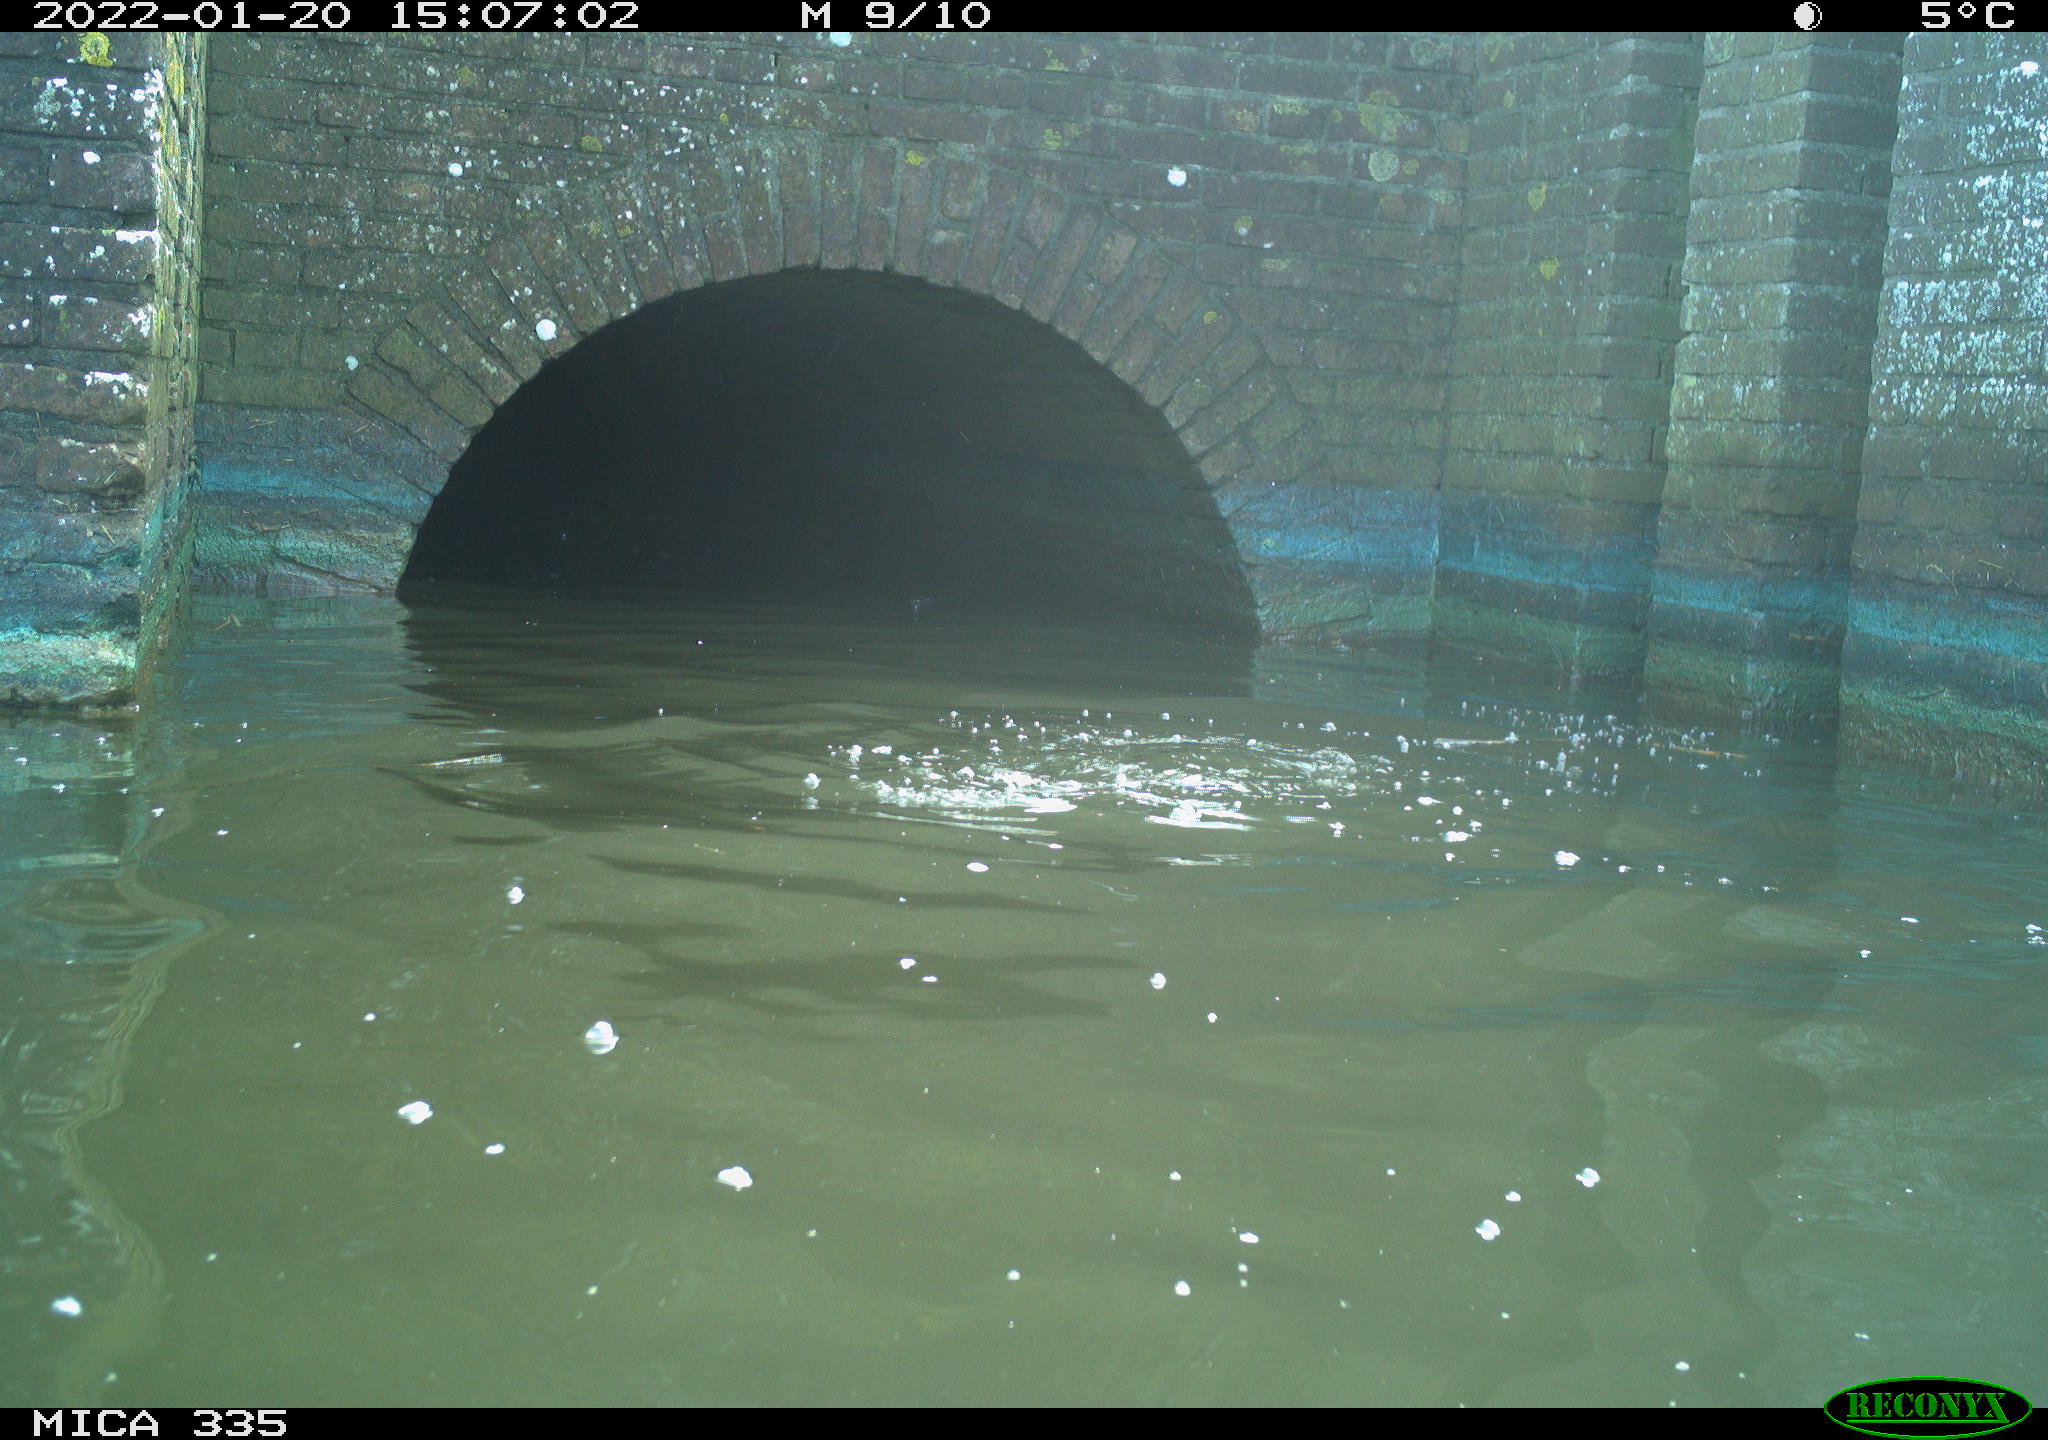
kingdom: Animalia
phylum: Chordata
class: Aves
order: Suliformes
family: Phalacrocoracidae
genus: Phalacrocorax
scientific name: Phalacrocorax carbo
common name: Great cormorant
